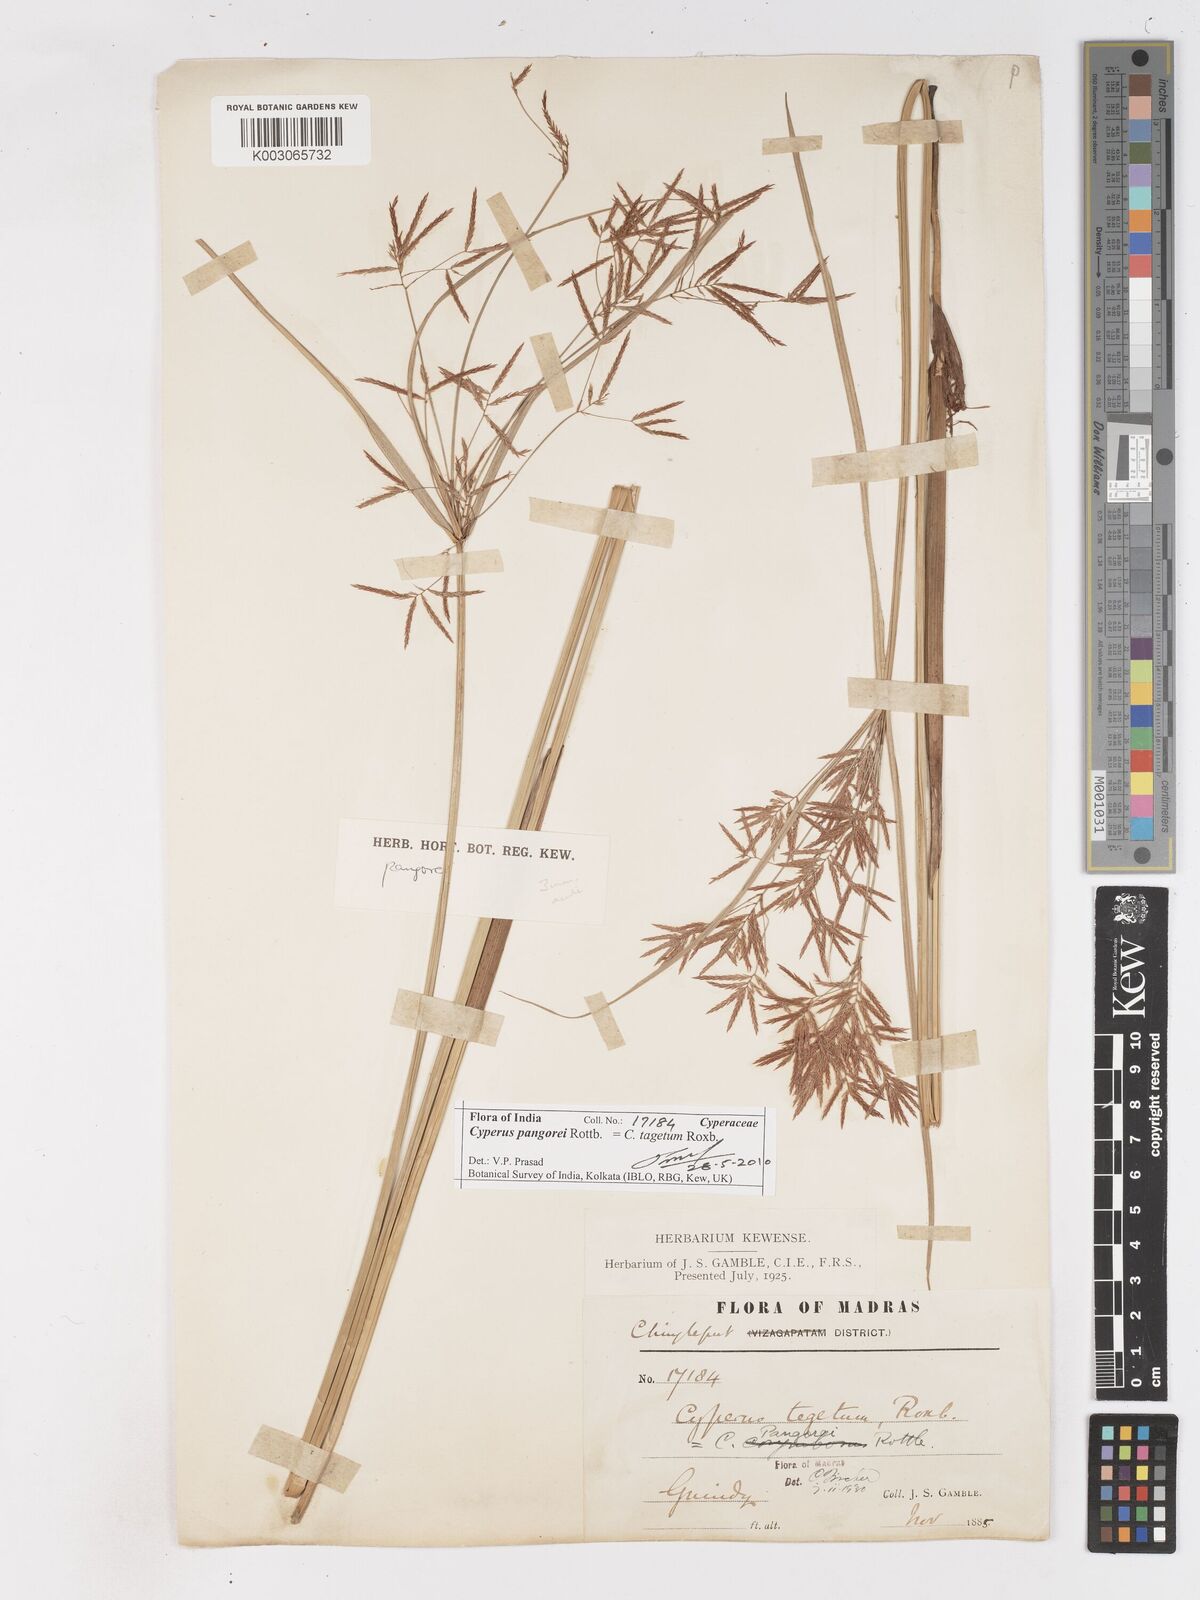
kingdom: Plantae
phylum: Tracheophyta
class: Liliopsida
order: Poales
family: Cyperaceae
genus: Cyperus
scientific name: Cyperus pangorei
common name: Mat sedge
